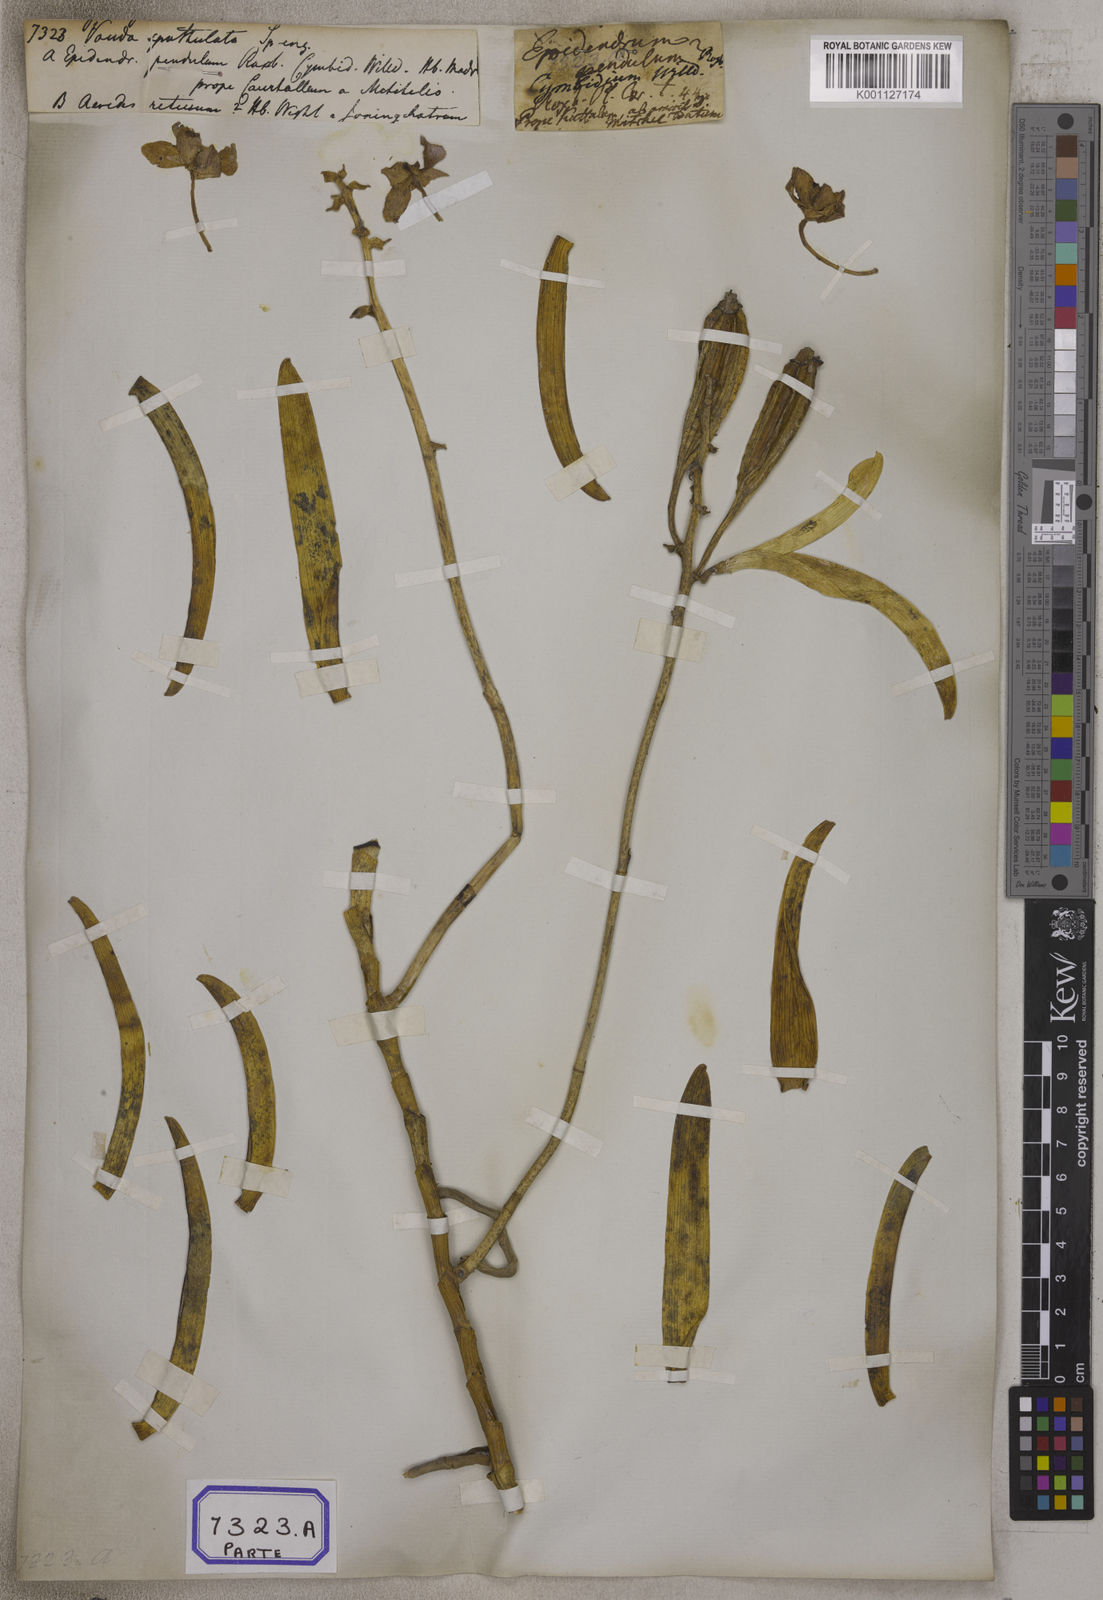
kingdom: Plantae
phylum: Tracheophyta
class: Liliopsida
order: Asparagales
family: Orchidaceae
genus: Taprobanea
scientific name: Taprobanea spathulata
